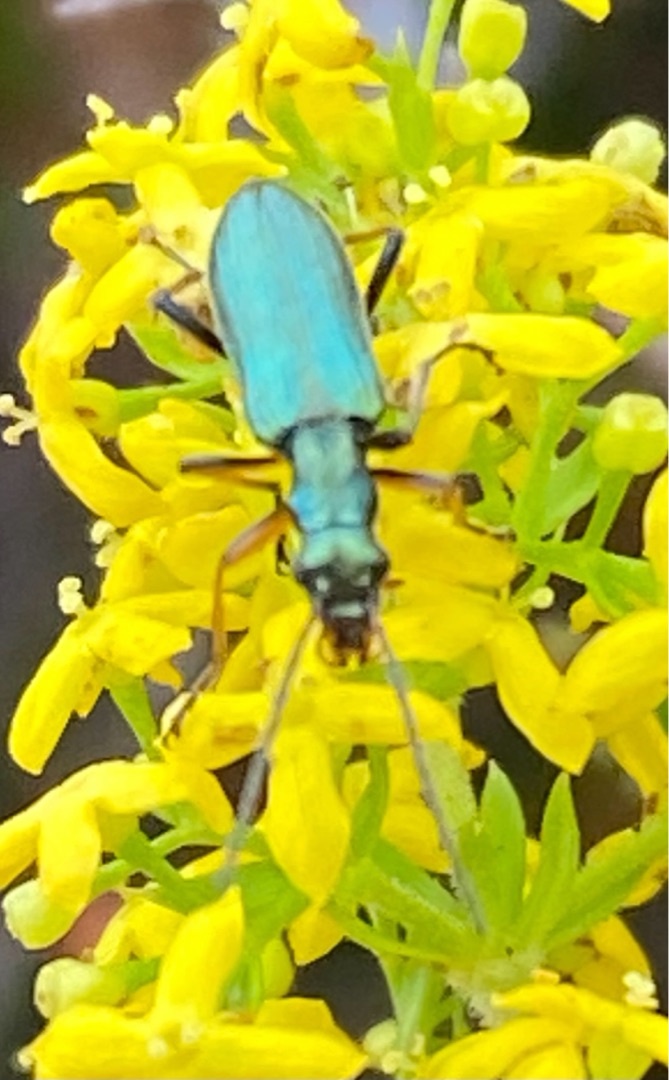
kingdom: Animalia
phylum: Arthropoda
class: Insecta
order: Coleoptera
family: Oedemeridae
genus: Chrysanthia
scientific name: Chrysanthia geniculata
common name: Grøn solbille
